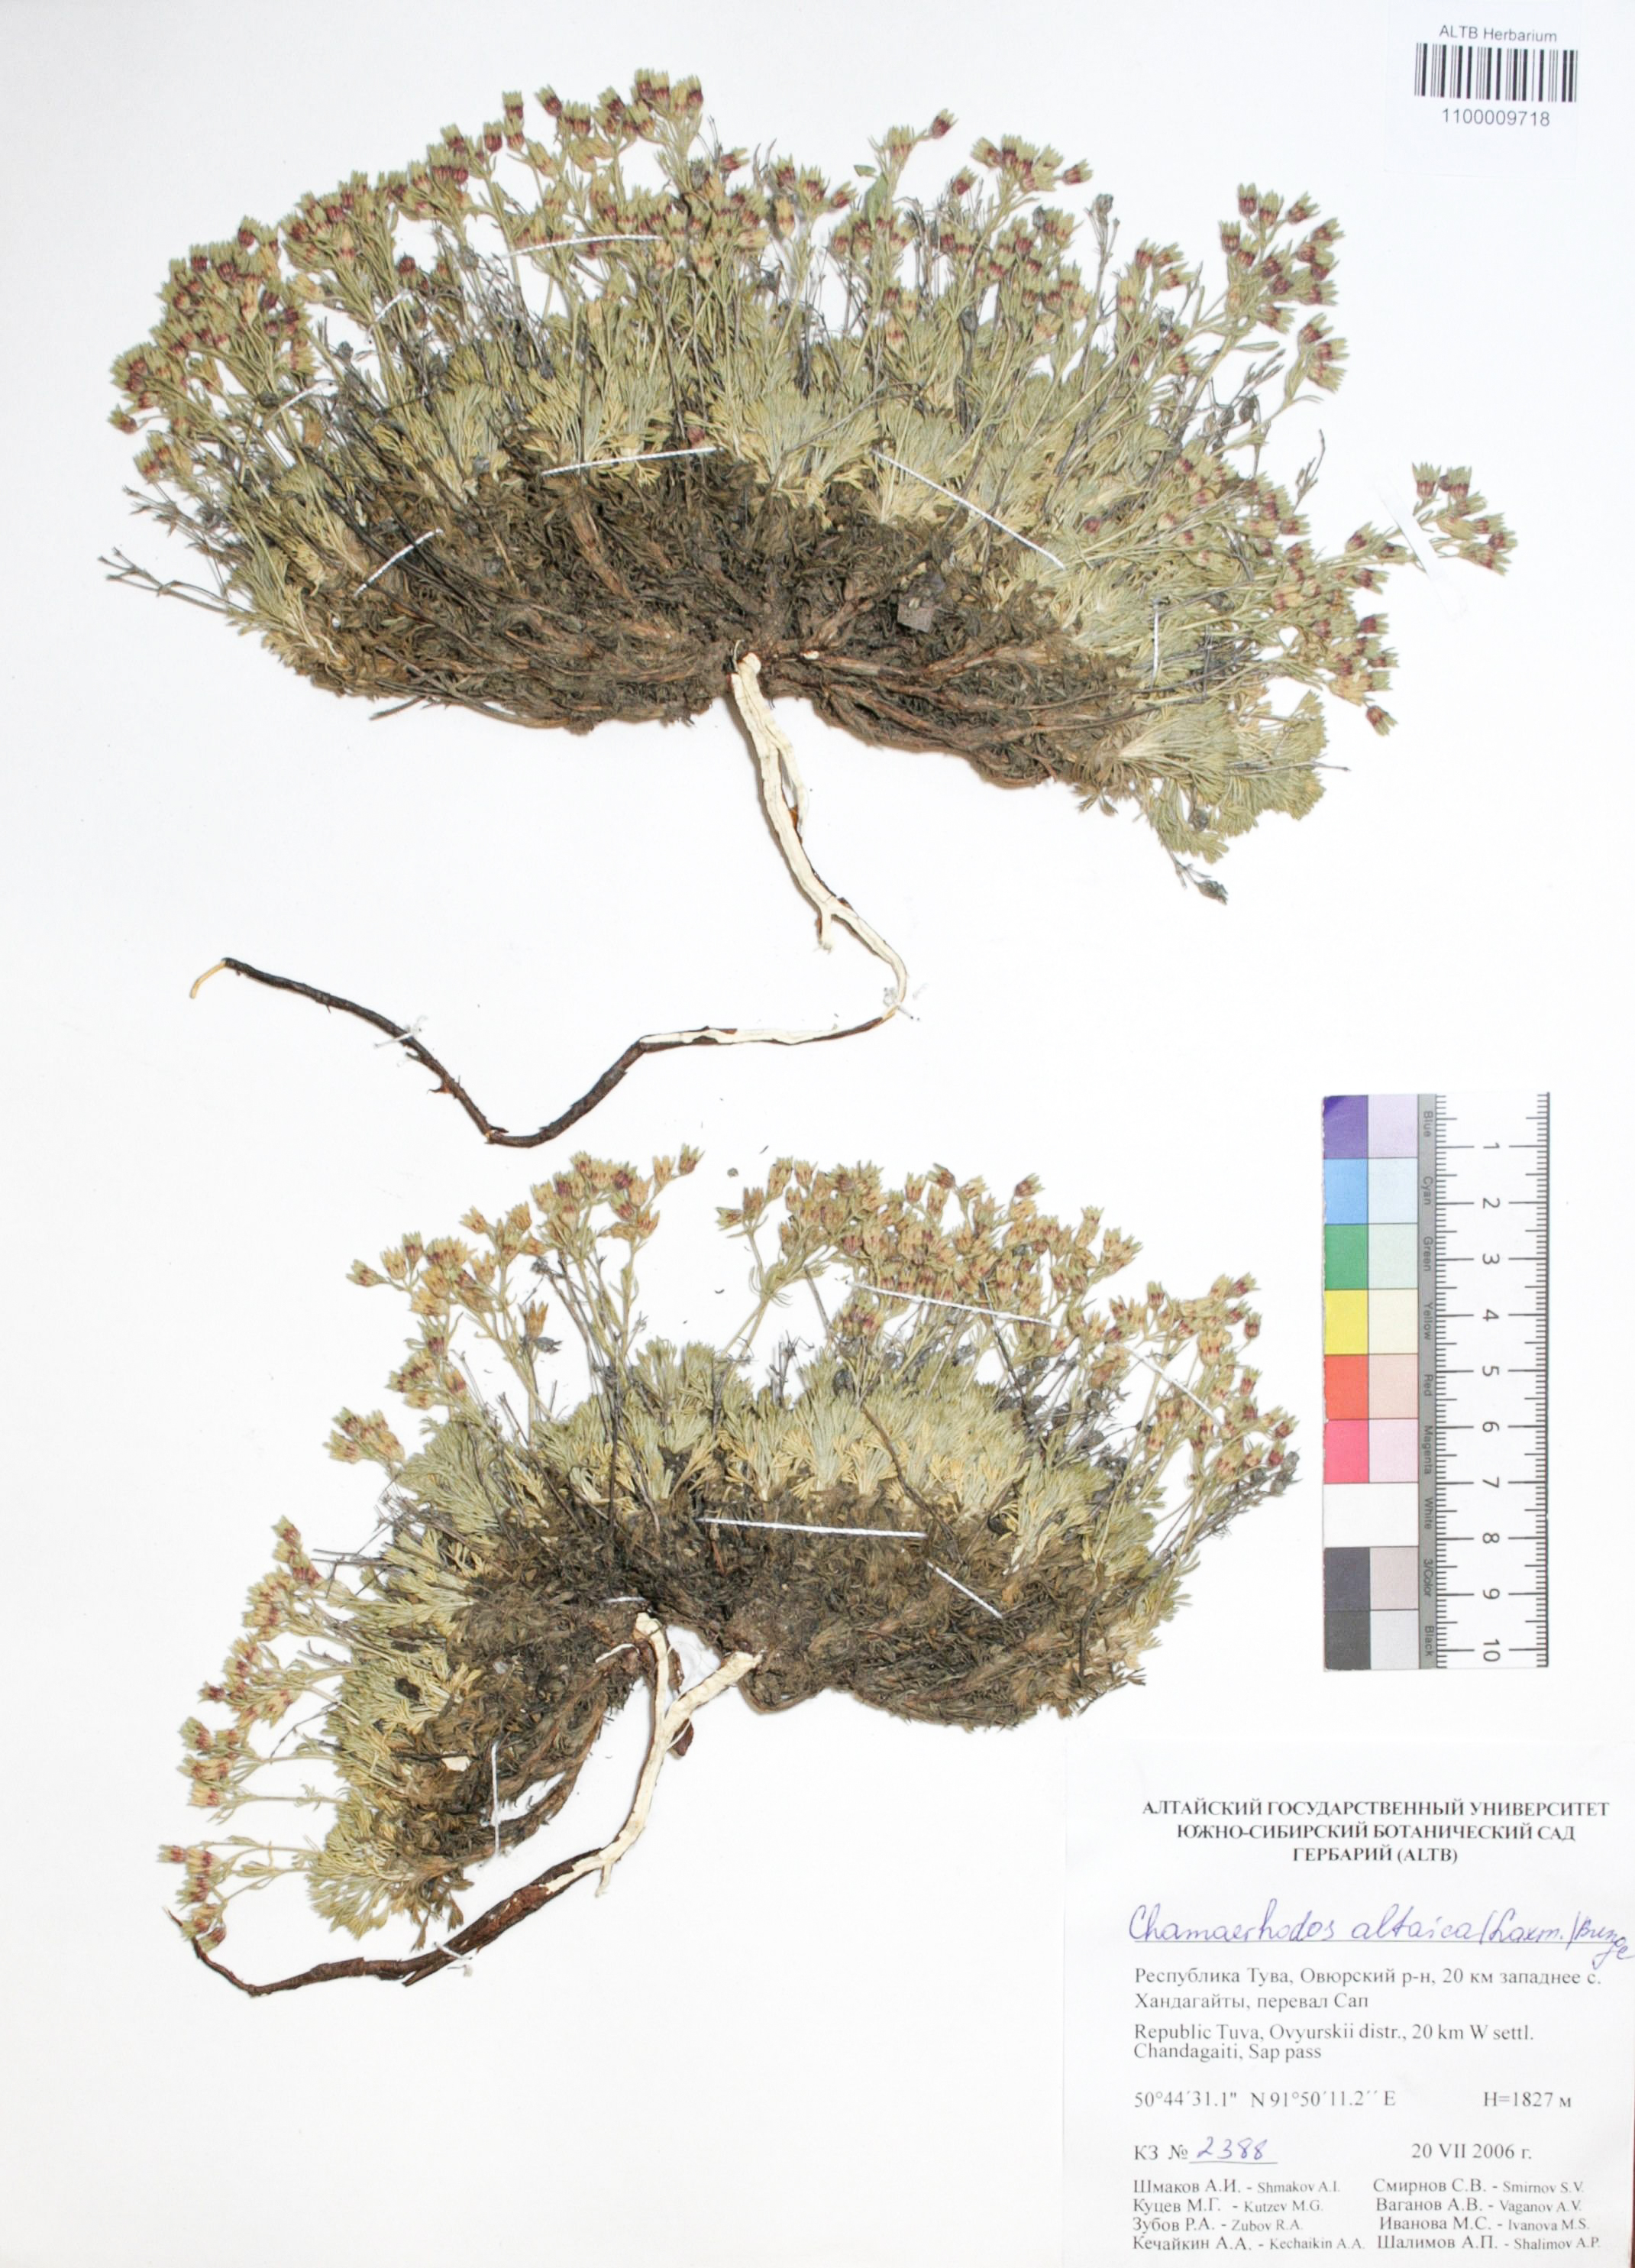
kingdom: Plantae
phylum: Tracheophyta
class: Magnoliopsida
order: Rosales
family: Rosaceae
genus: Chamaerhodos
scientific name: Chamaerhodos altaica
